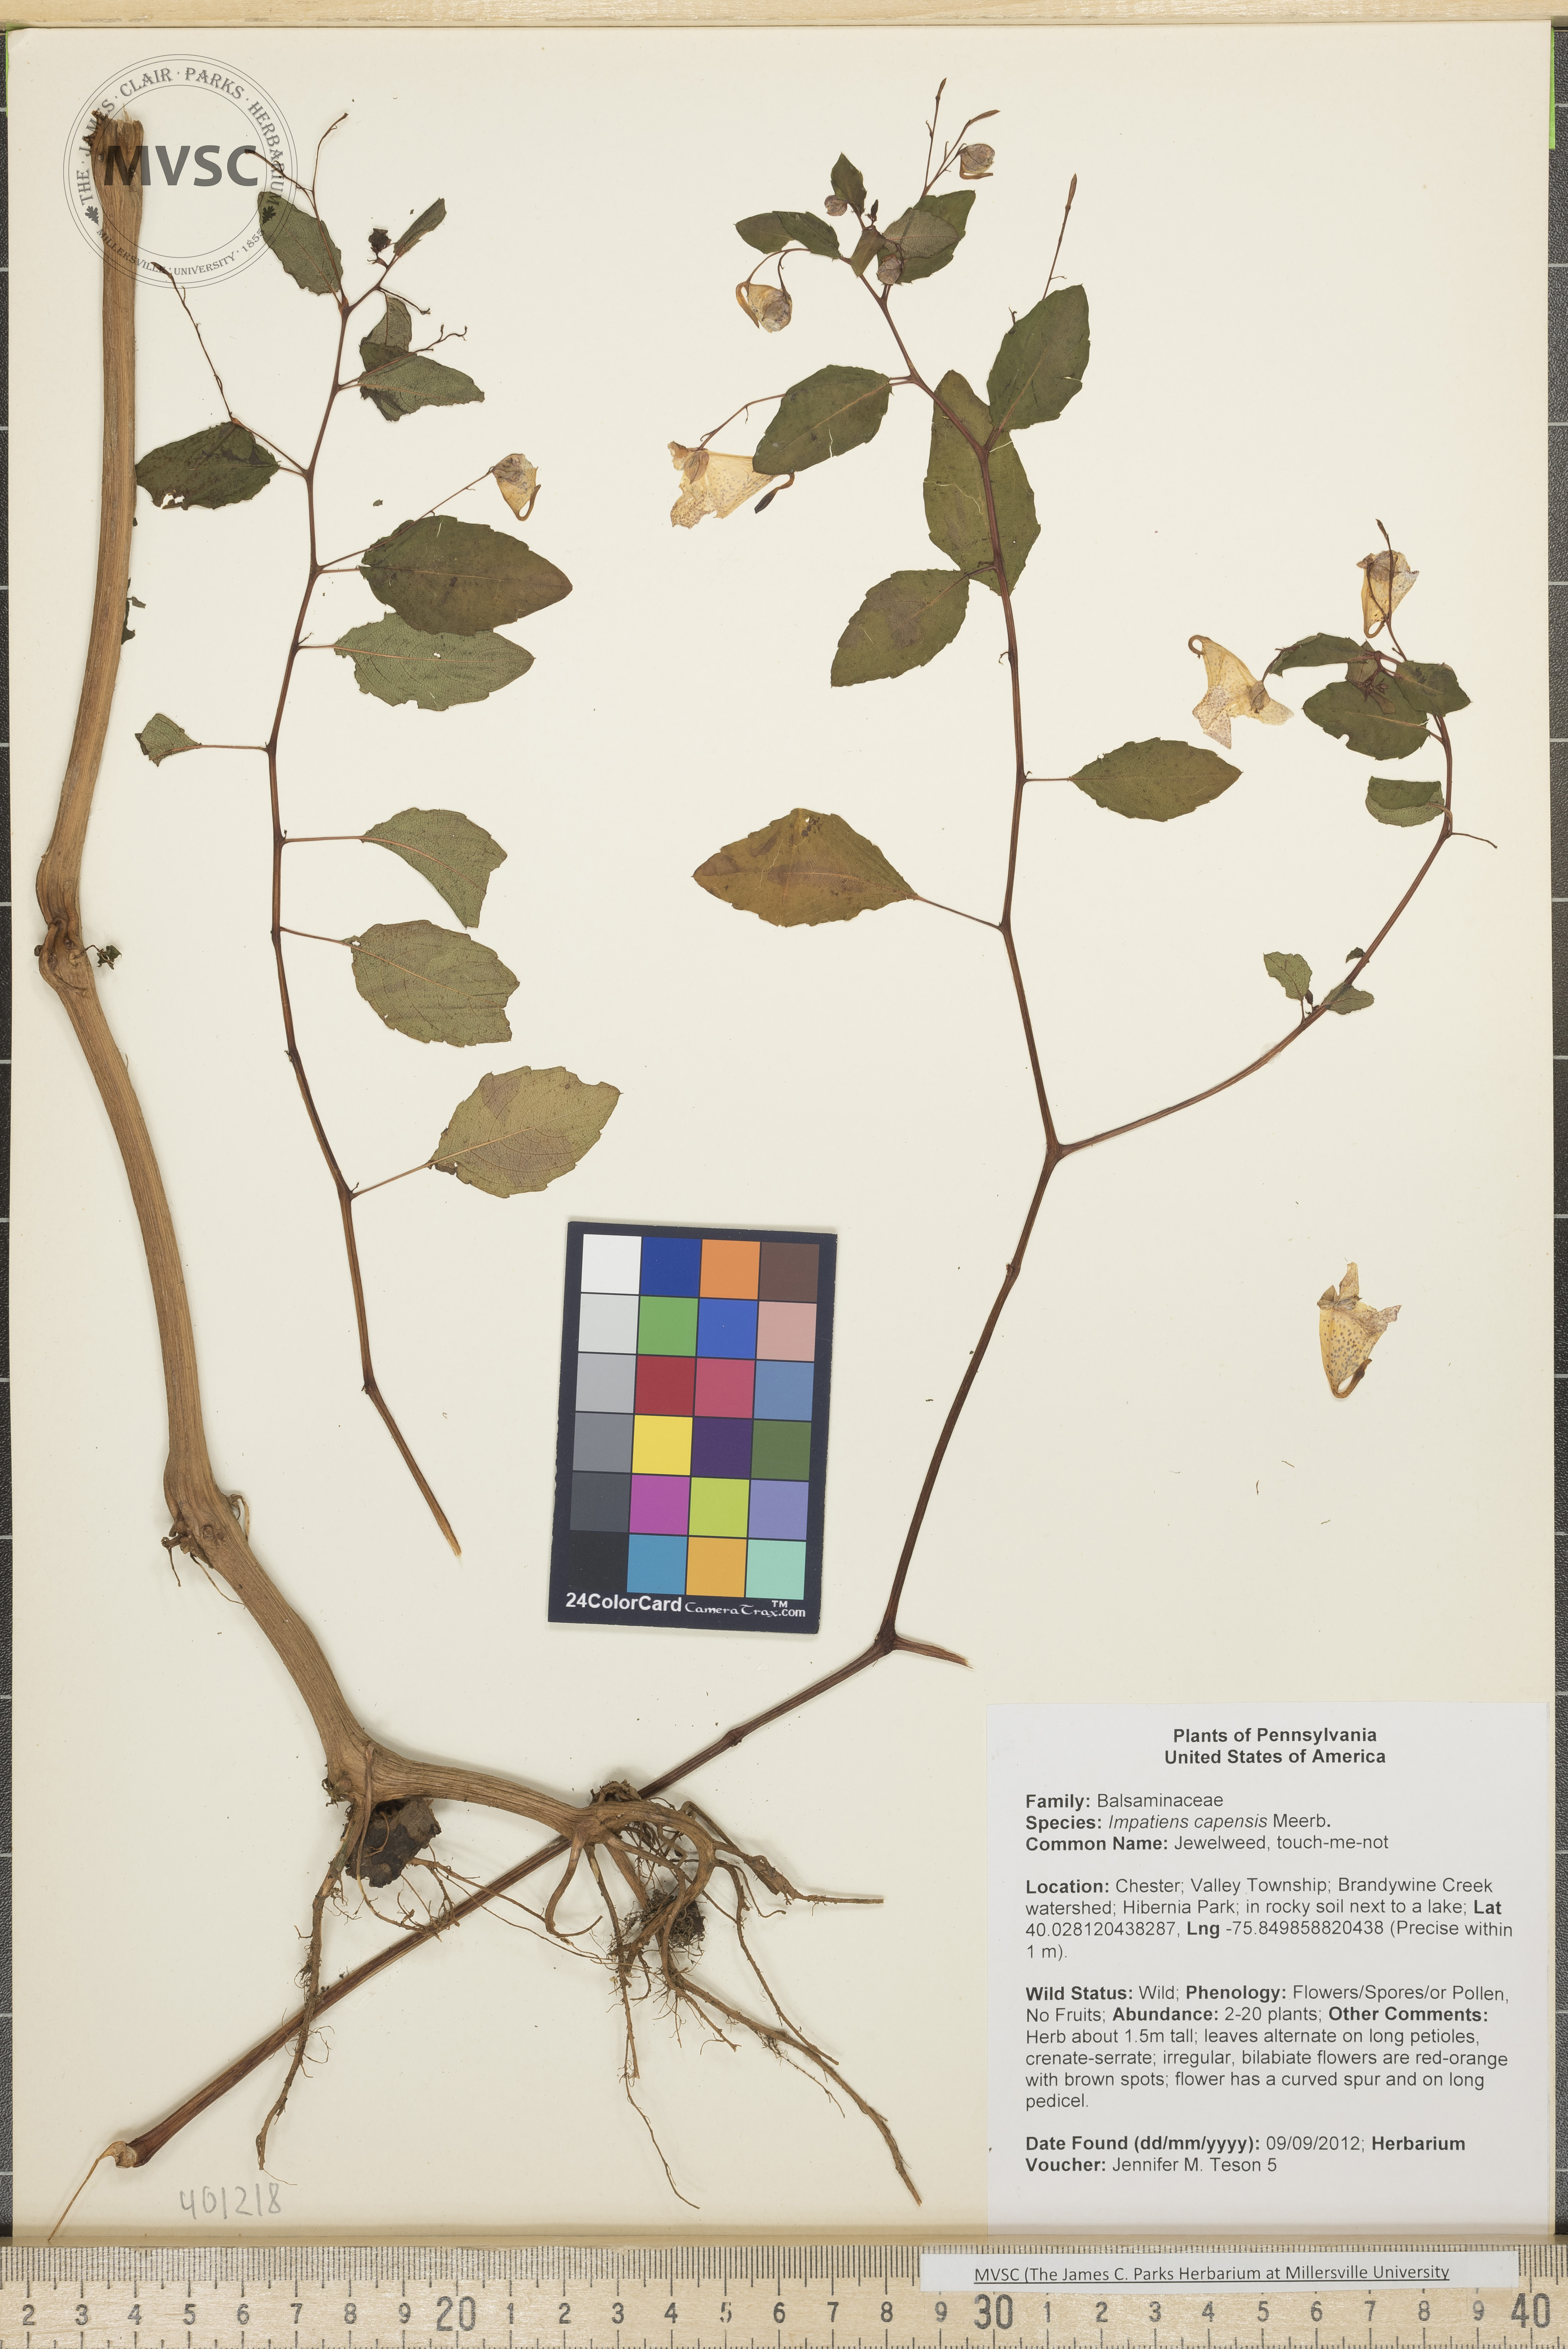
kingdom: Plantae
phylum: Tracheophyta
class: Magnoliopsida
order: Ericales
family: Balsaminaceae
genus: Impatiens
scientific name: Impatiens capensis
